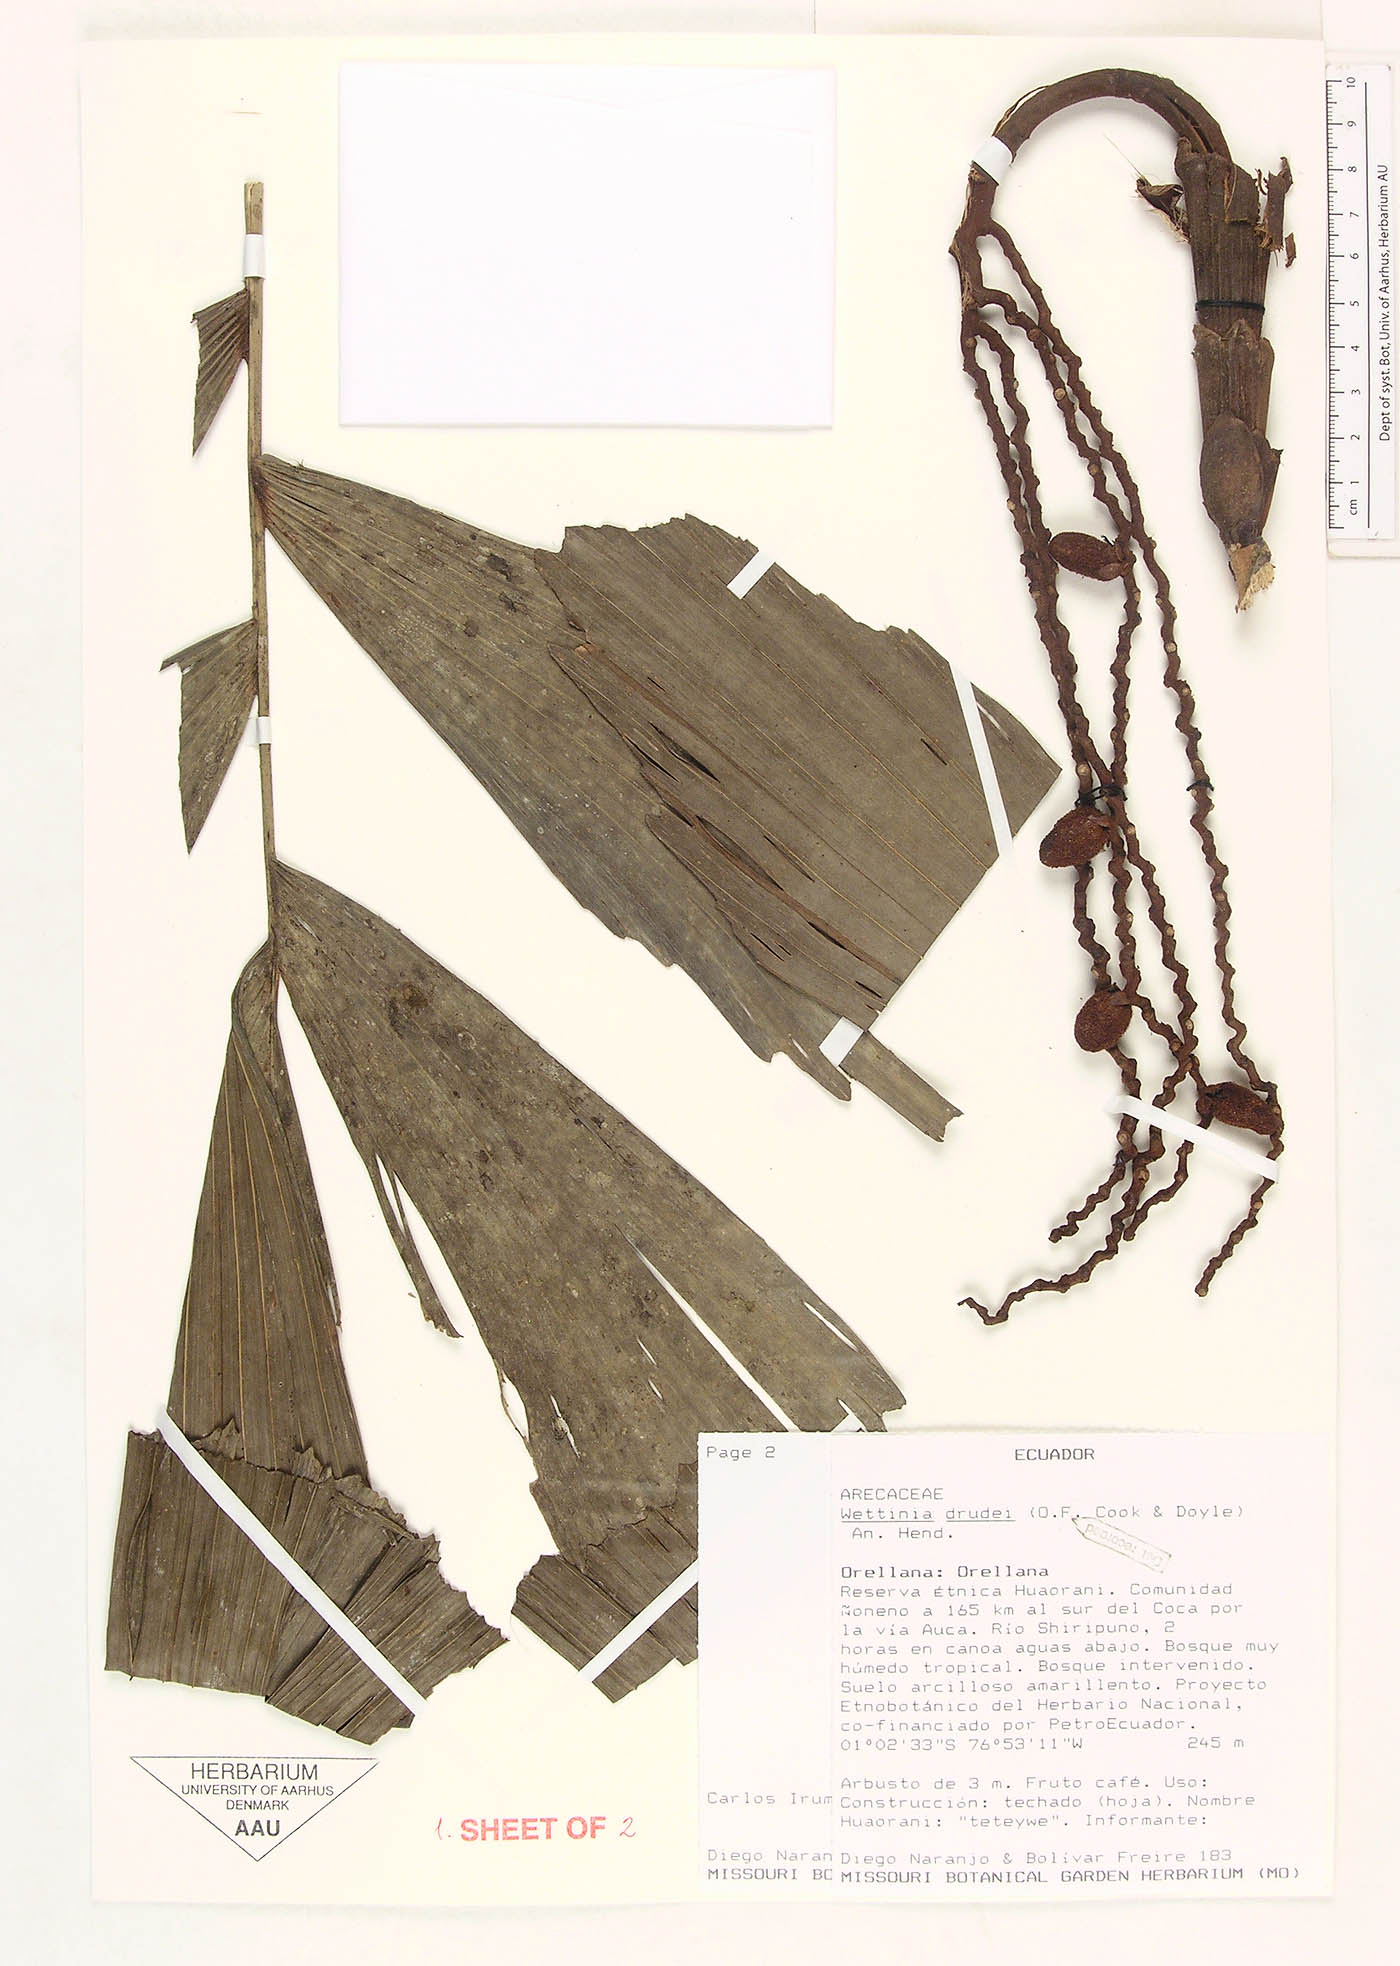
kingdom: Plantae
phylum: Tracheophyta
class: Liliopsida
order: Arecales
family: Arecaceae
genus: Wettinia
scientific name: Wettinia drudei
